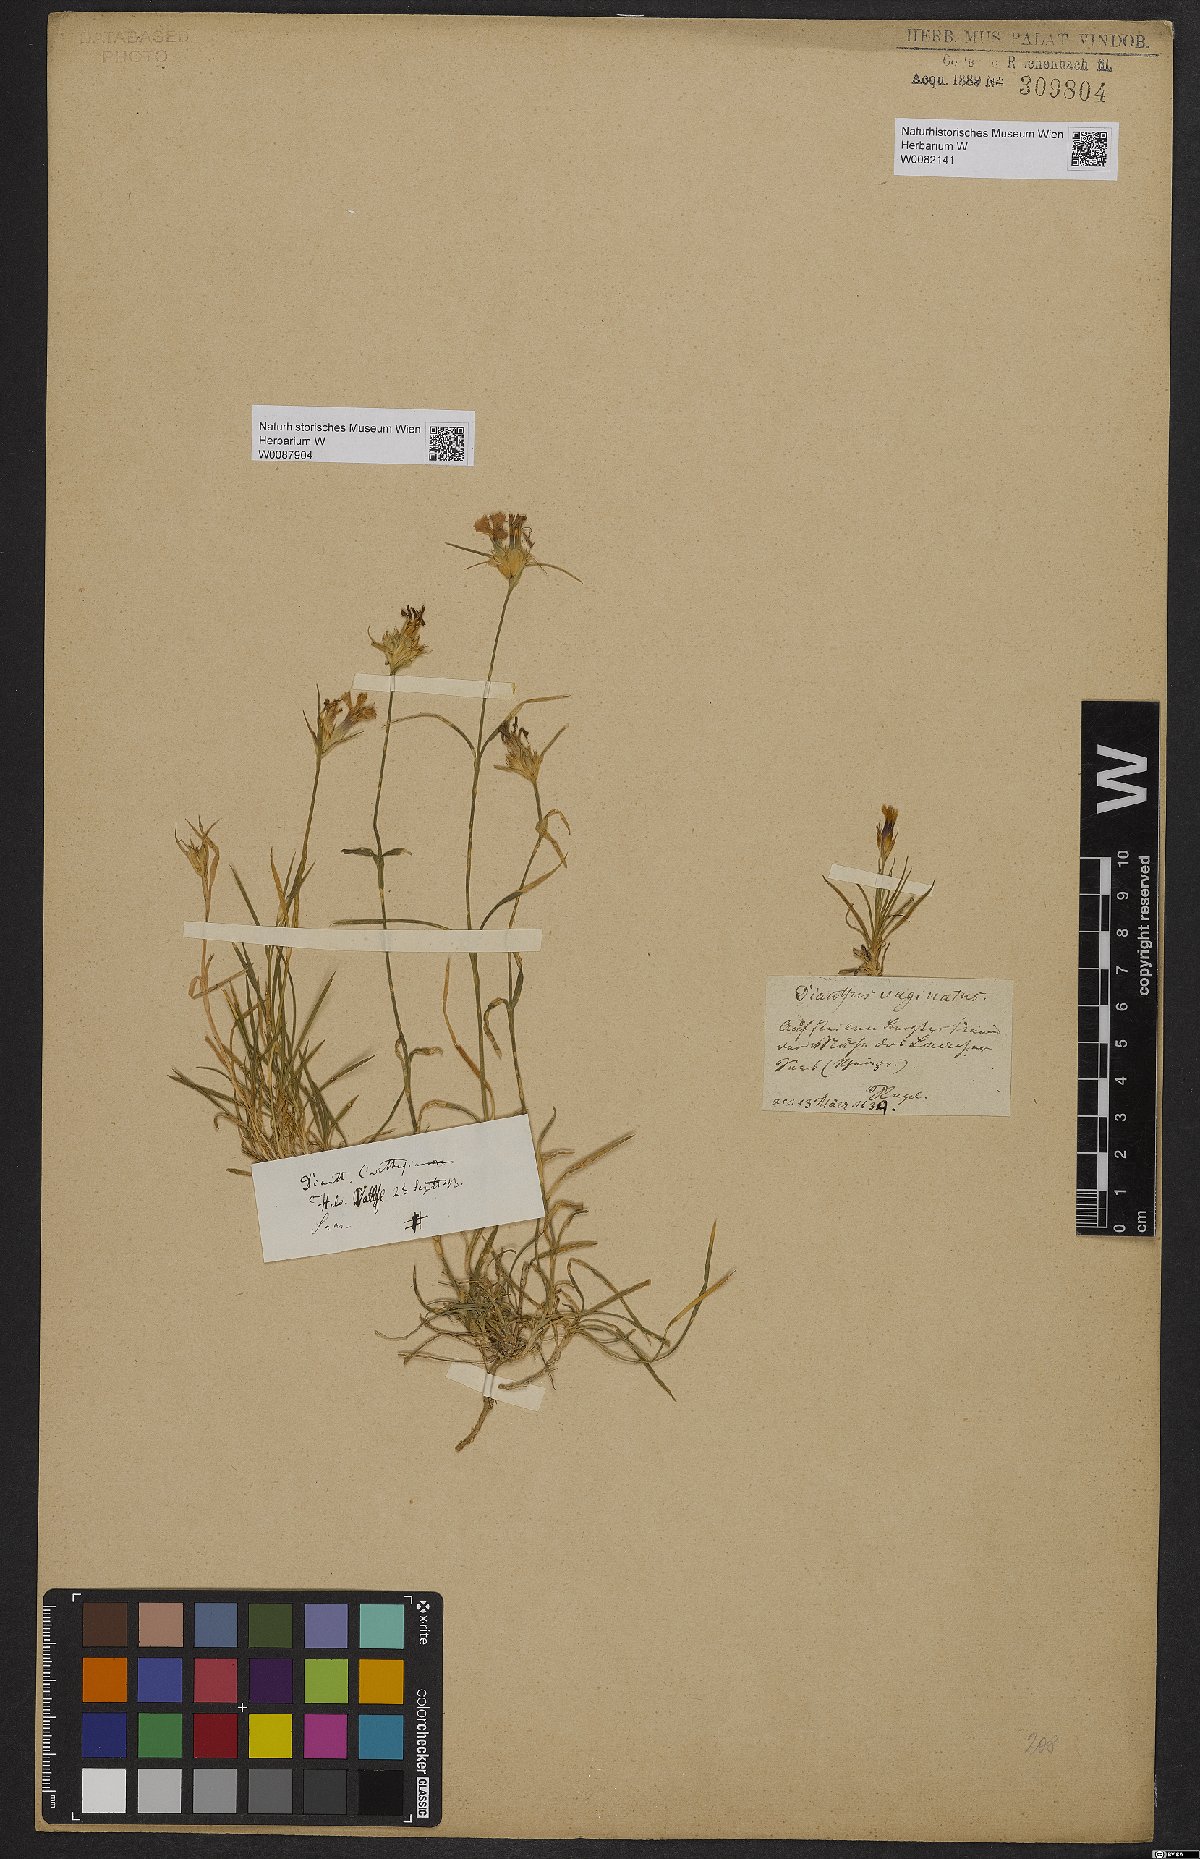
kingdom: Plantae
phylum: Tracheophyta
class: Magnoliopsida
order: Caryophyllales
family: Caryophyllaceae
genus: Dianthus
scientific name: Dianthus sylvestris
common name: Wood pink
